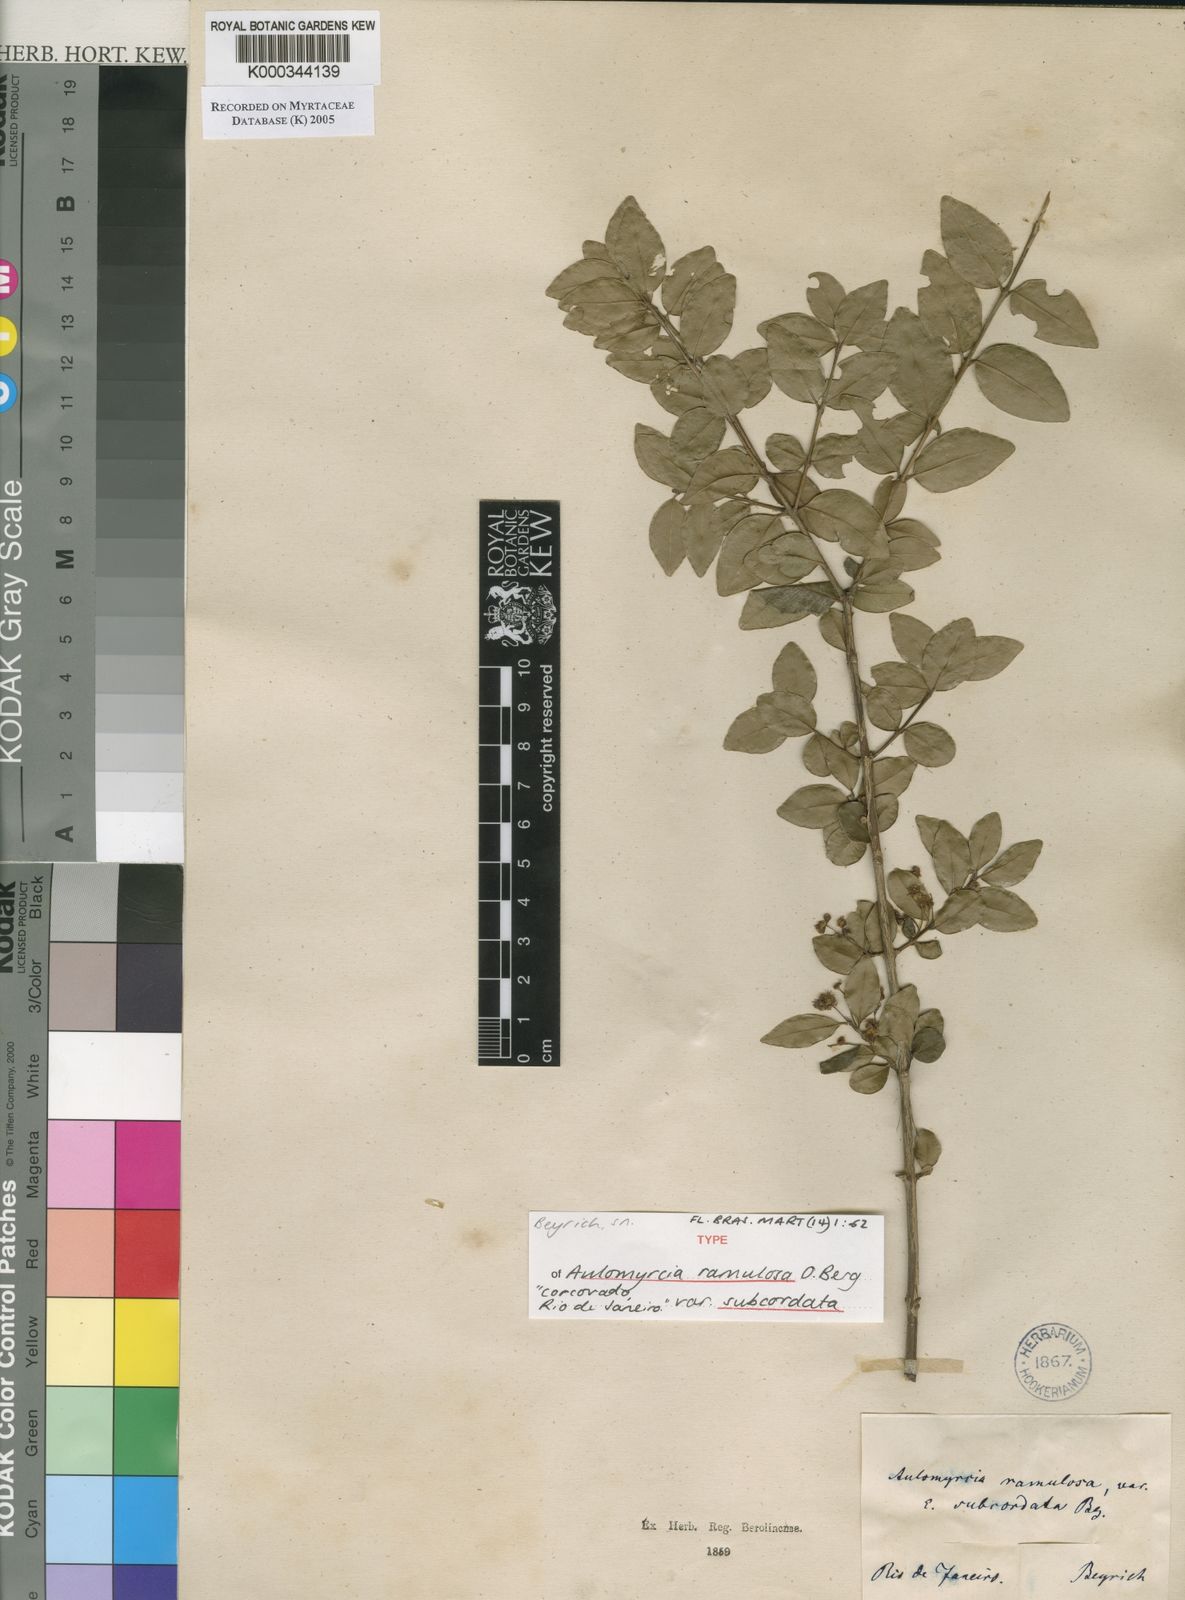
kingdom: Plantae
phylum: Tracheophyta
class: Magnoliopsida
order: Myrtales
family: Myrtaceae
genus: Myrcia
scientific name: Myrcia selloi
